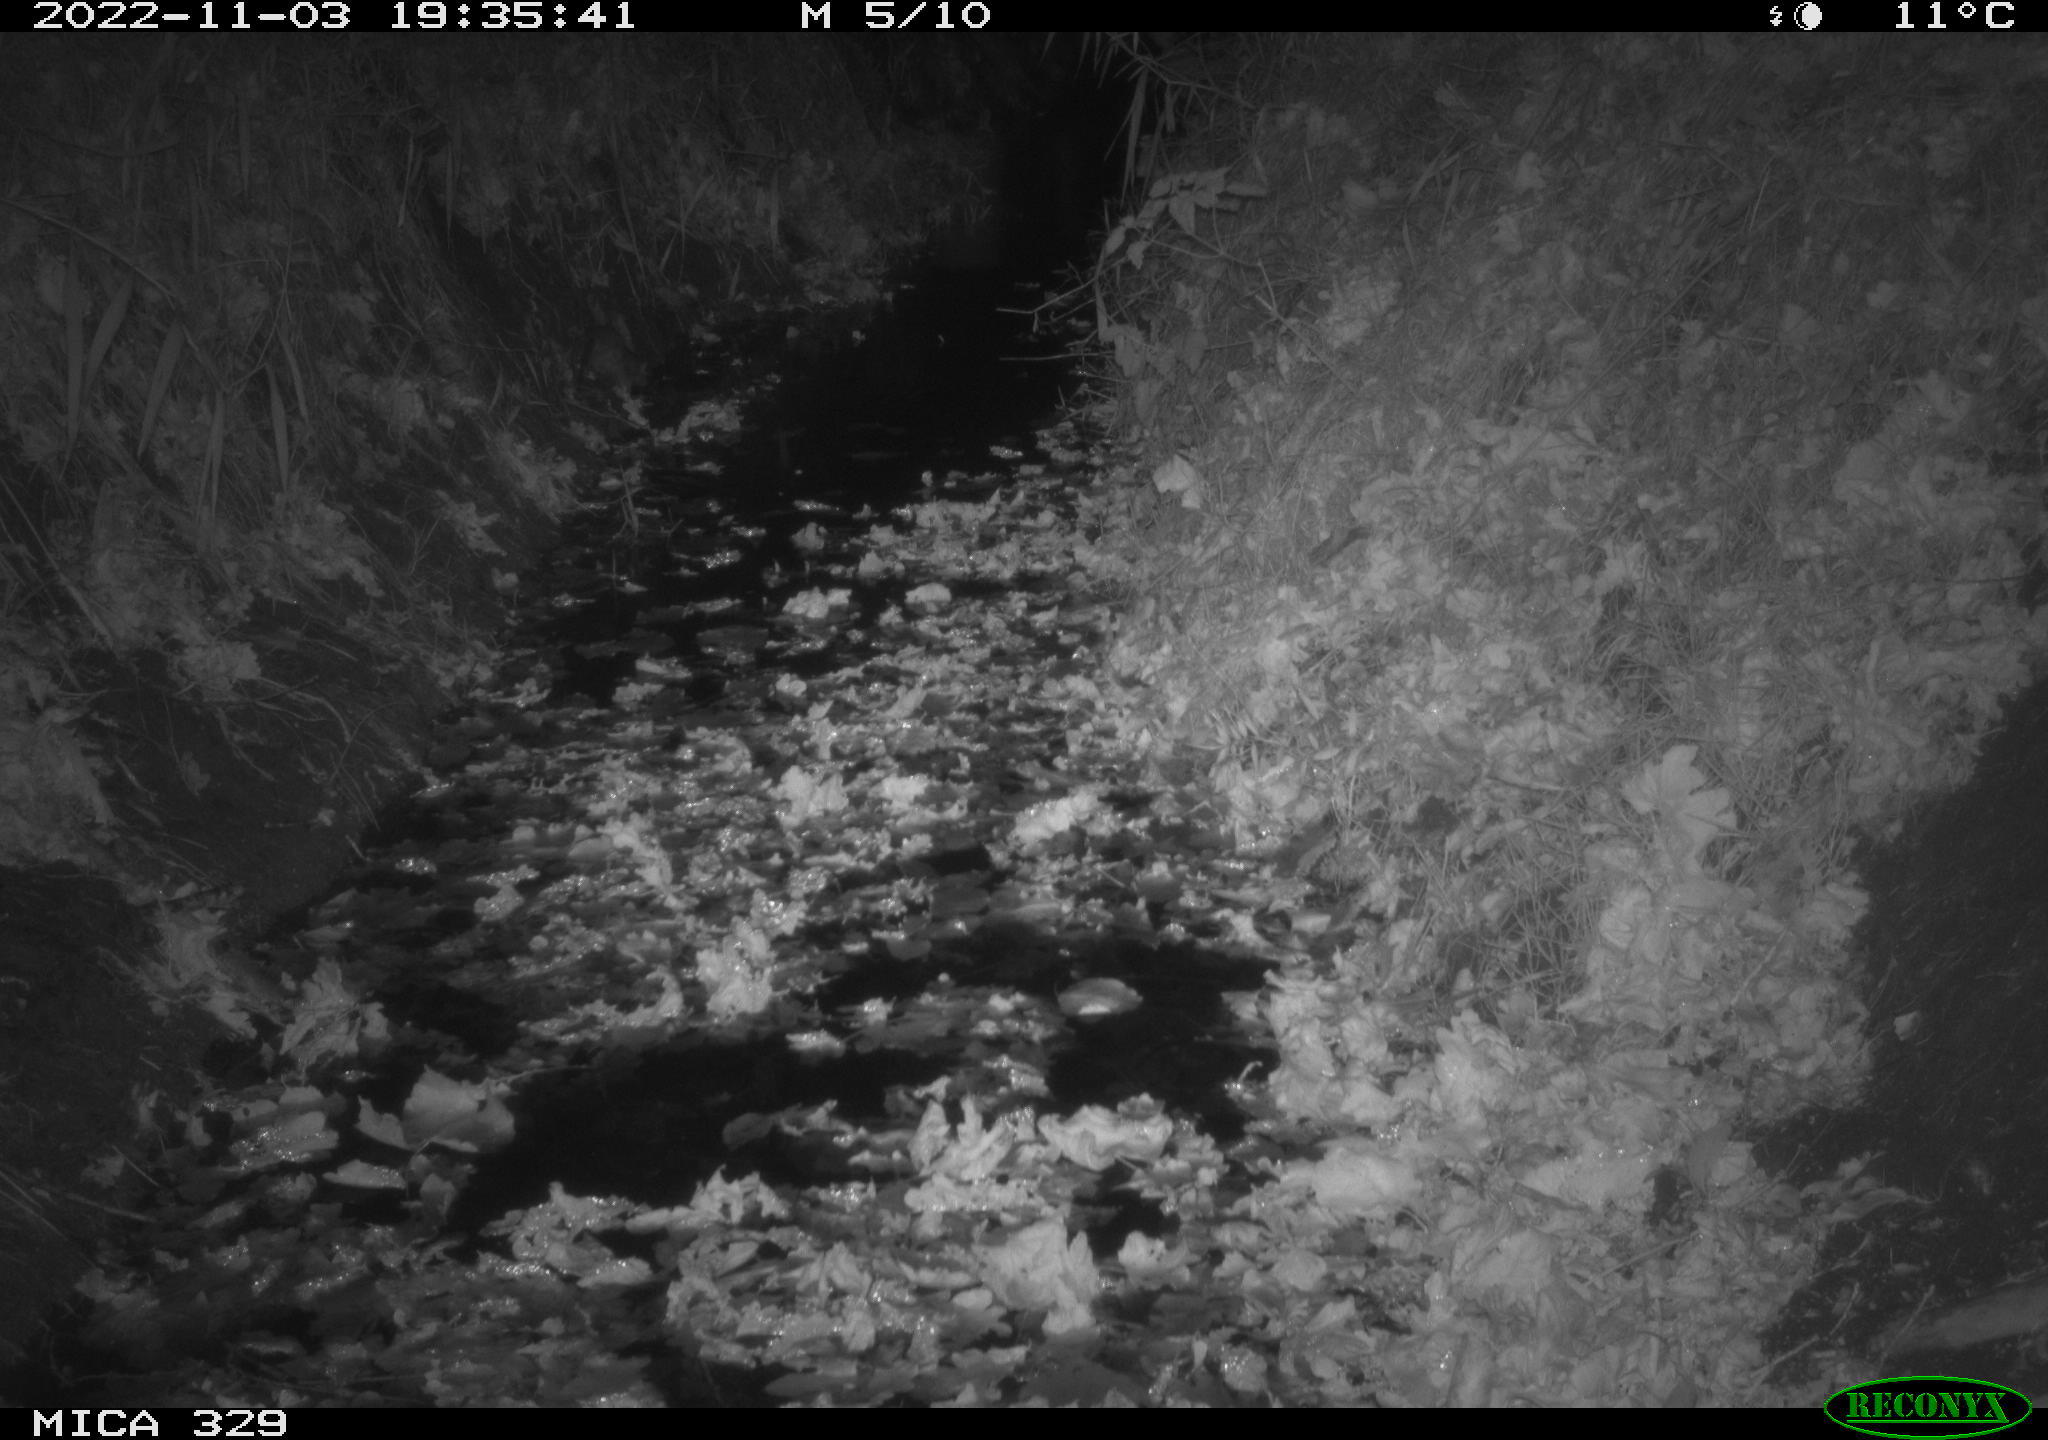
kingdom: Animalia
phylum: Chordata
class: Mammalia
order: Rodentia
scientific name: Rodentia
